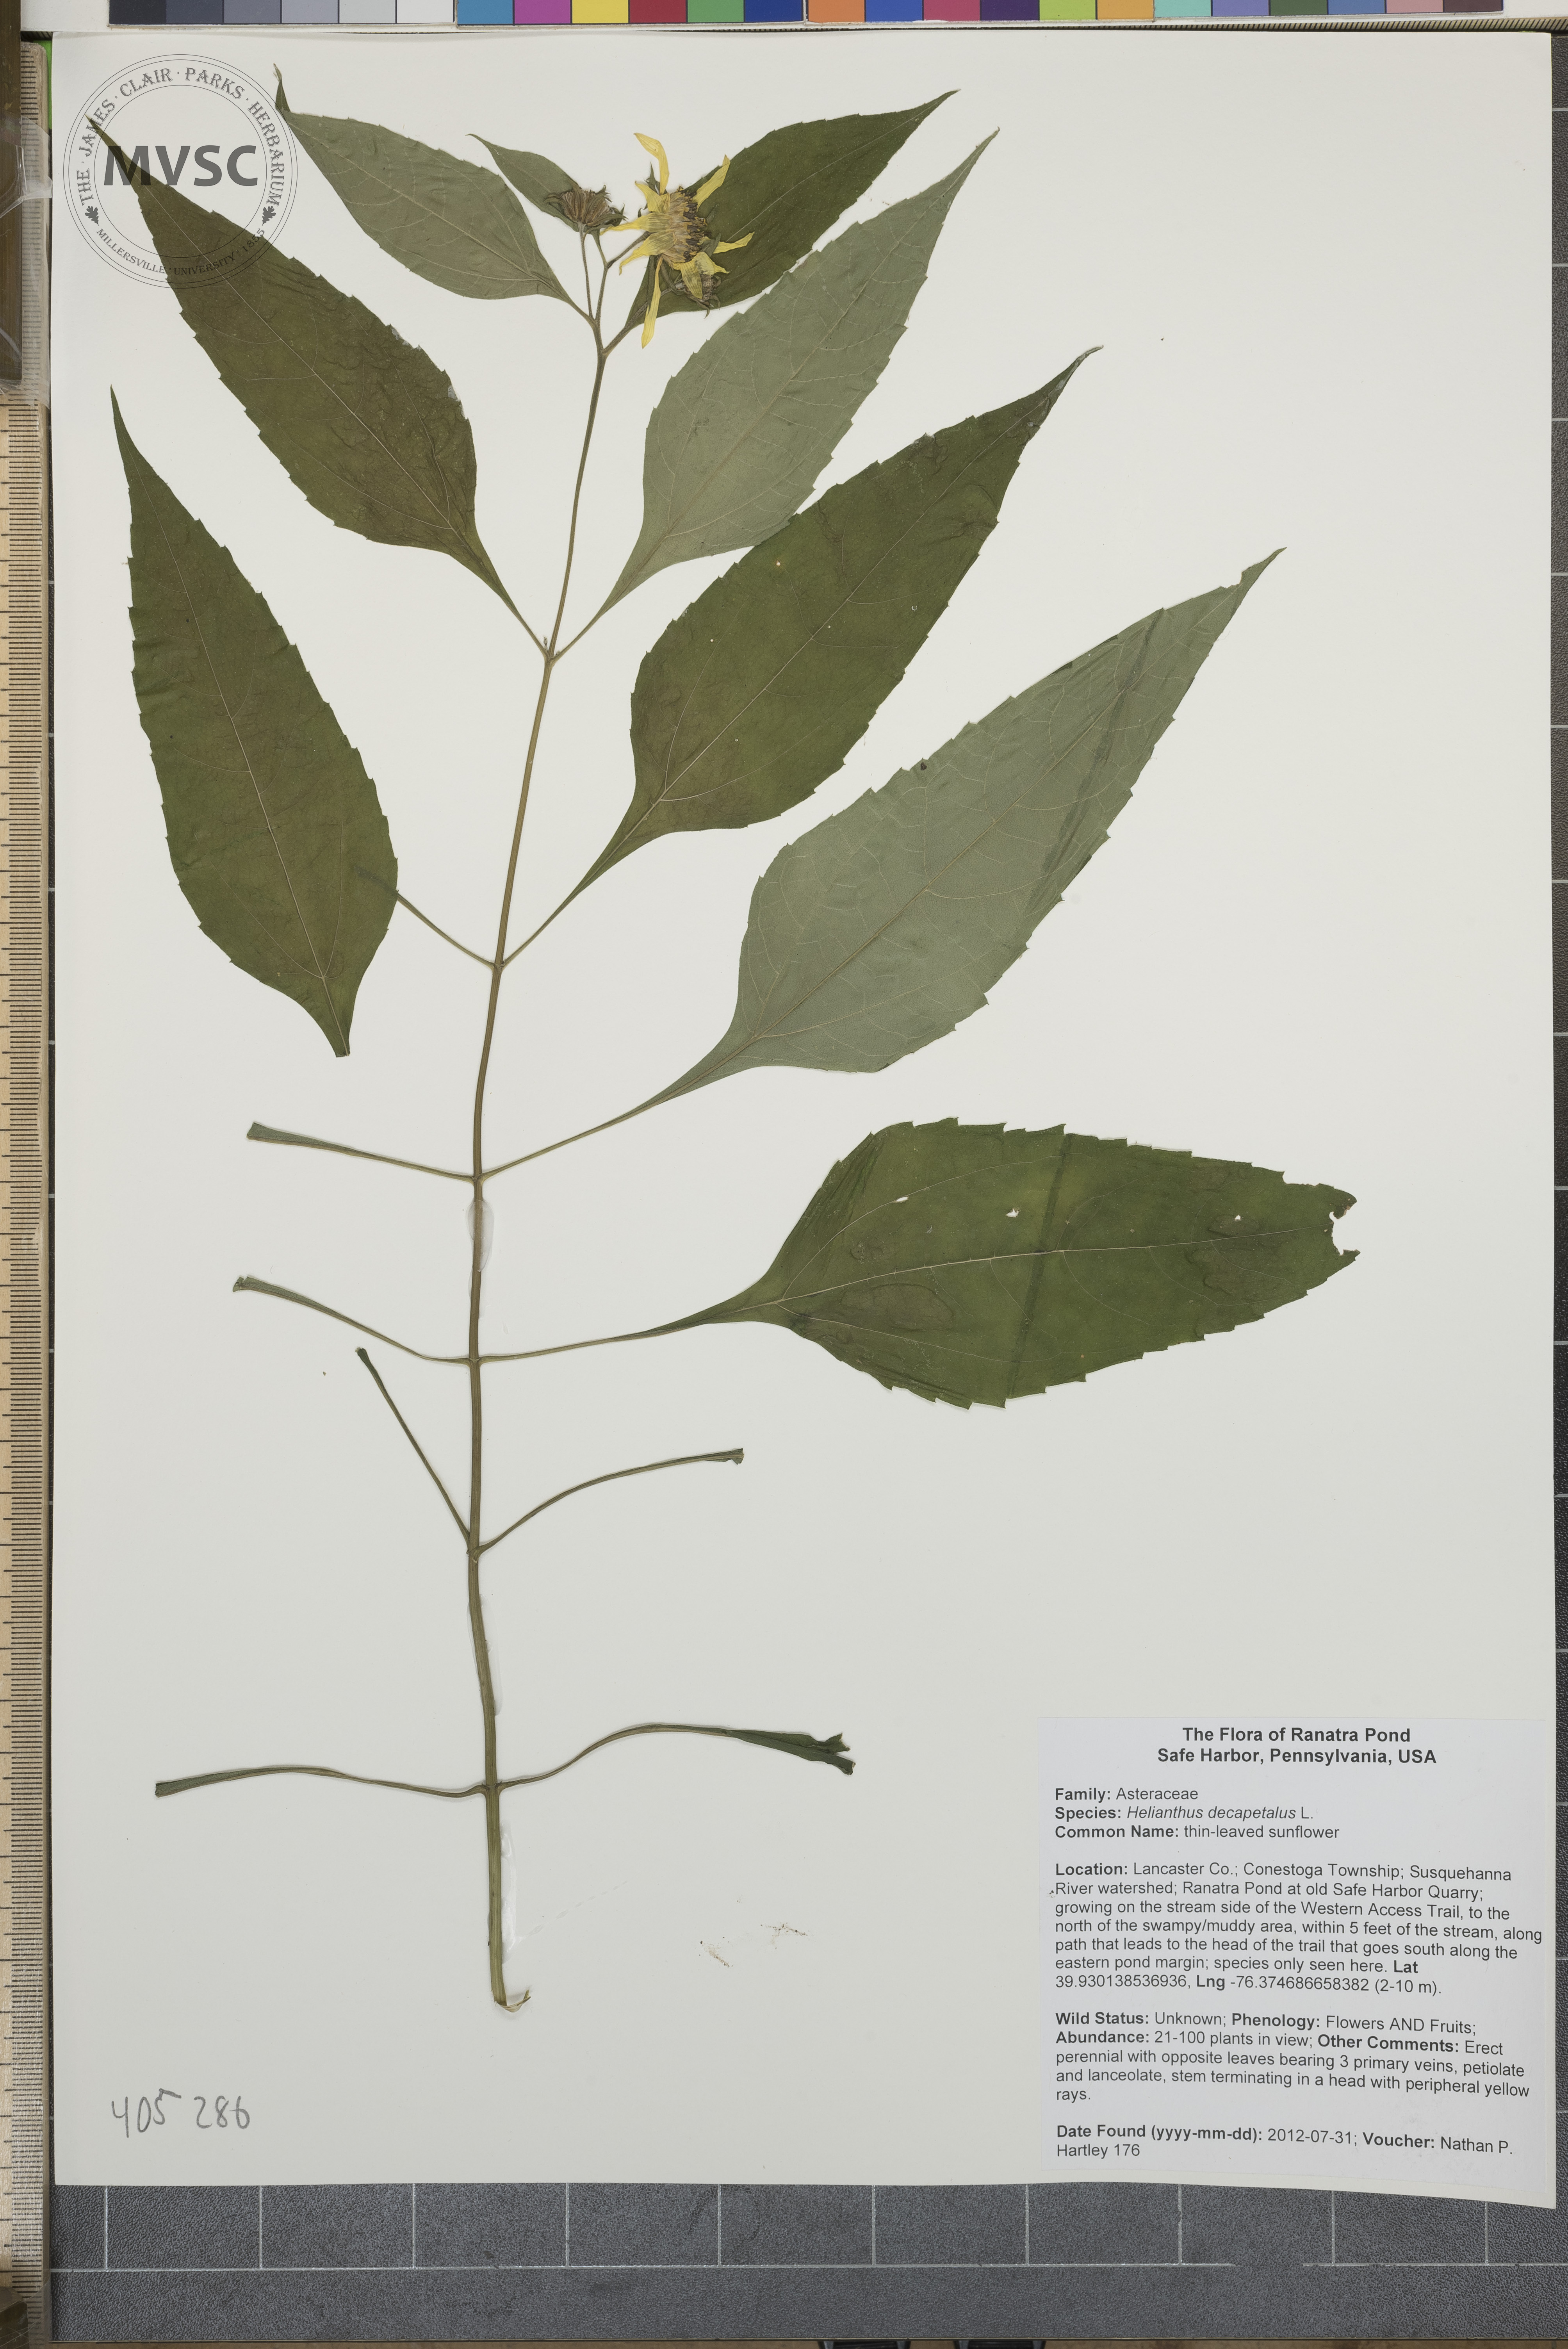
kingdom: Plantae
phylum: Tracheophyta
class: Magnoliopsida
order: Asterales
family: Asteraceae
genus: Helianthus
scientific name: Helianthus decapetalus
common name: thin-leaved sunflower
